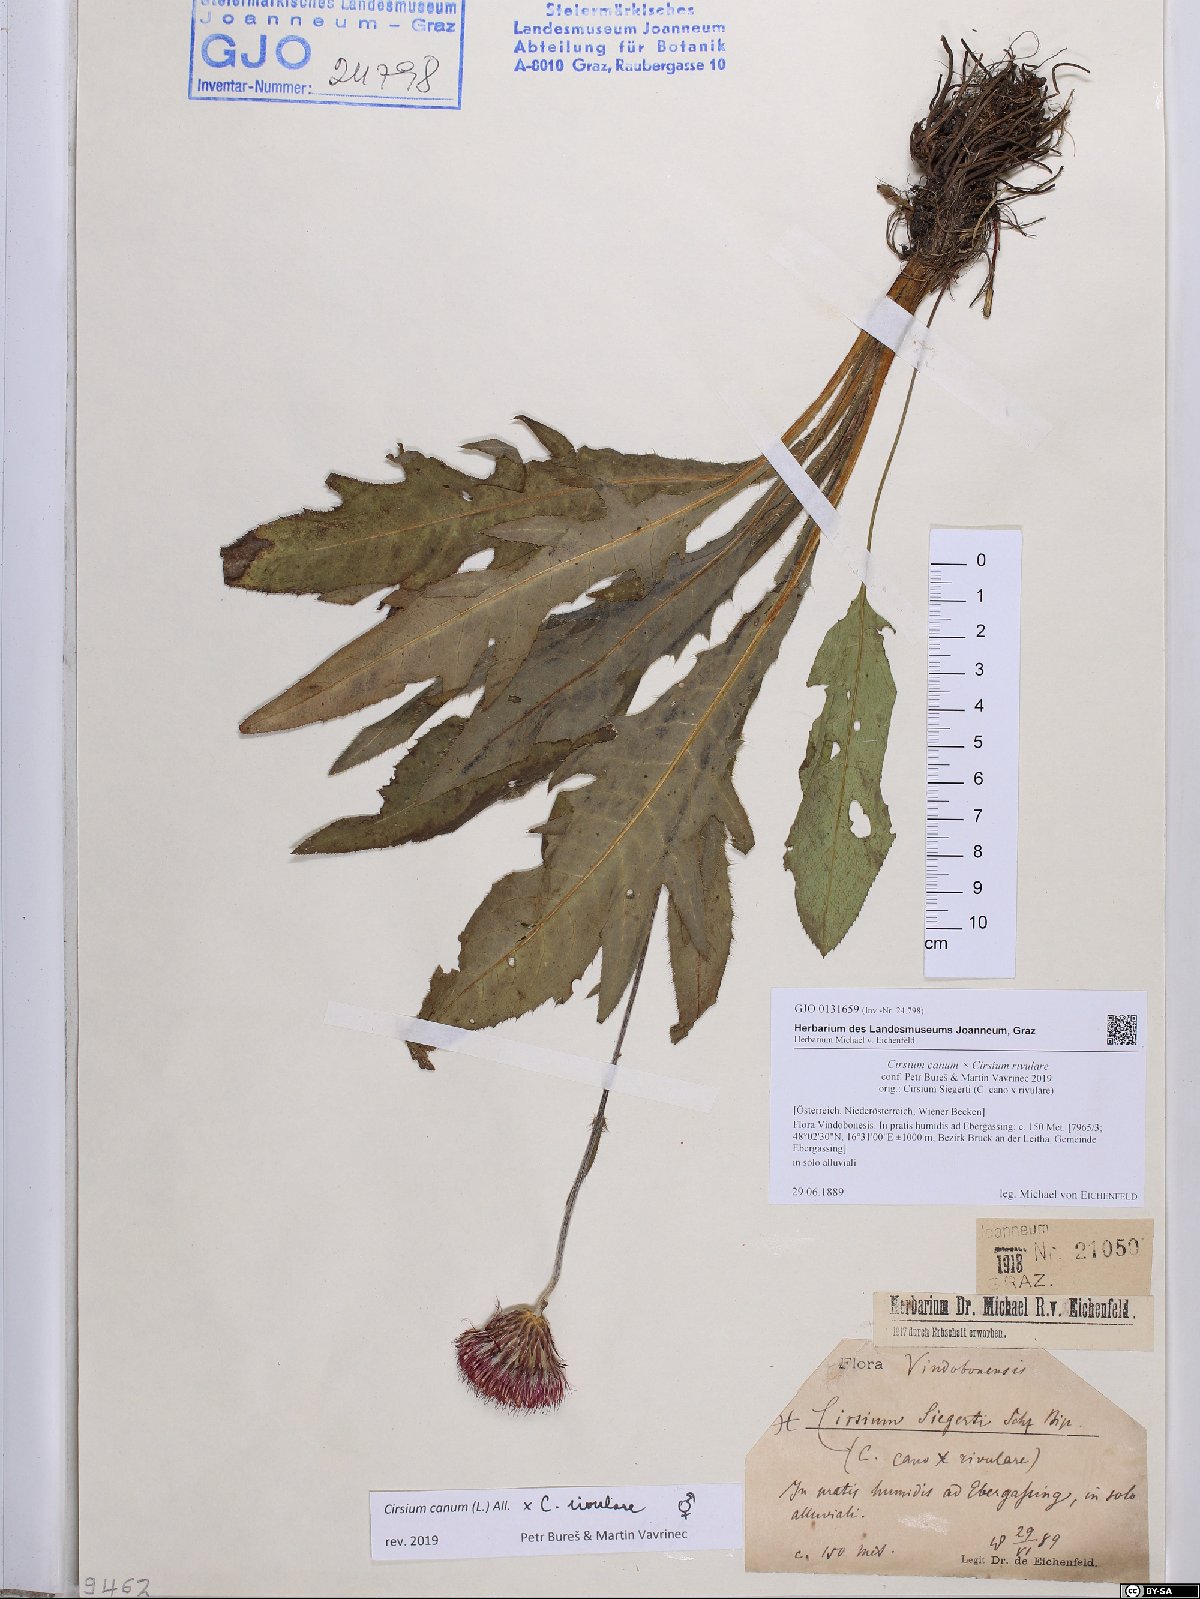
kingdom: Plantae
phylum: Tracheophyta
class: Magnoliopsida
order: Asterales
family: Asteraceae
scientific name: Asteraceae
